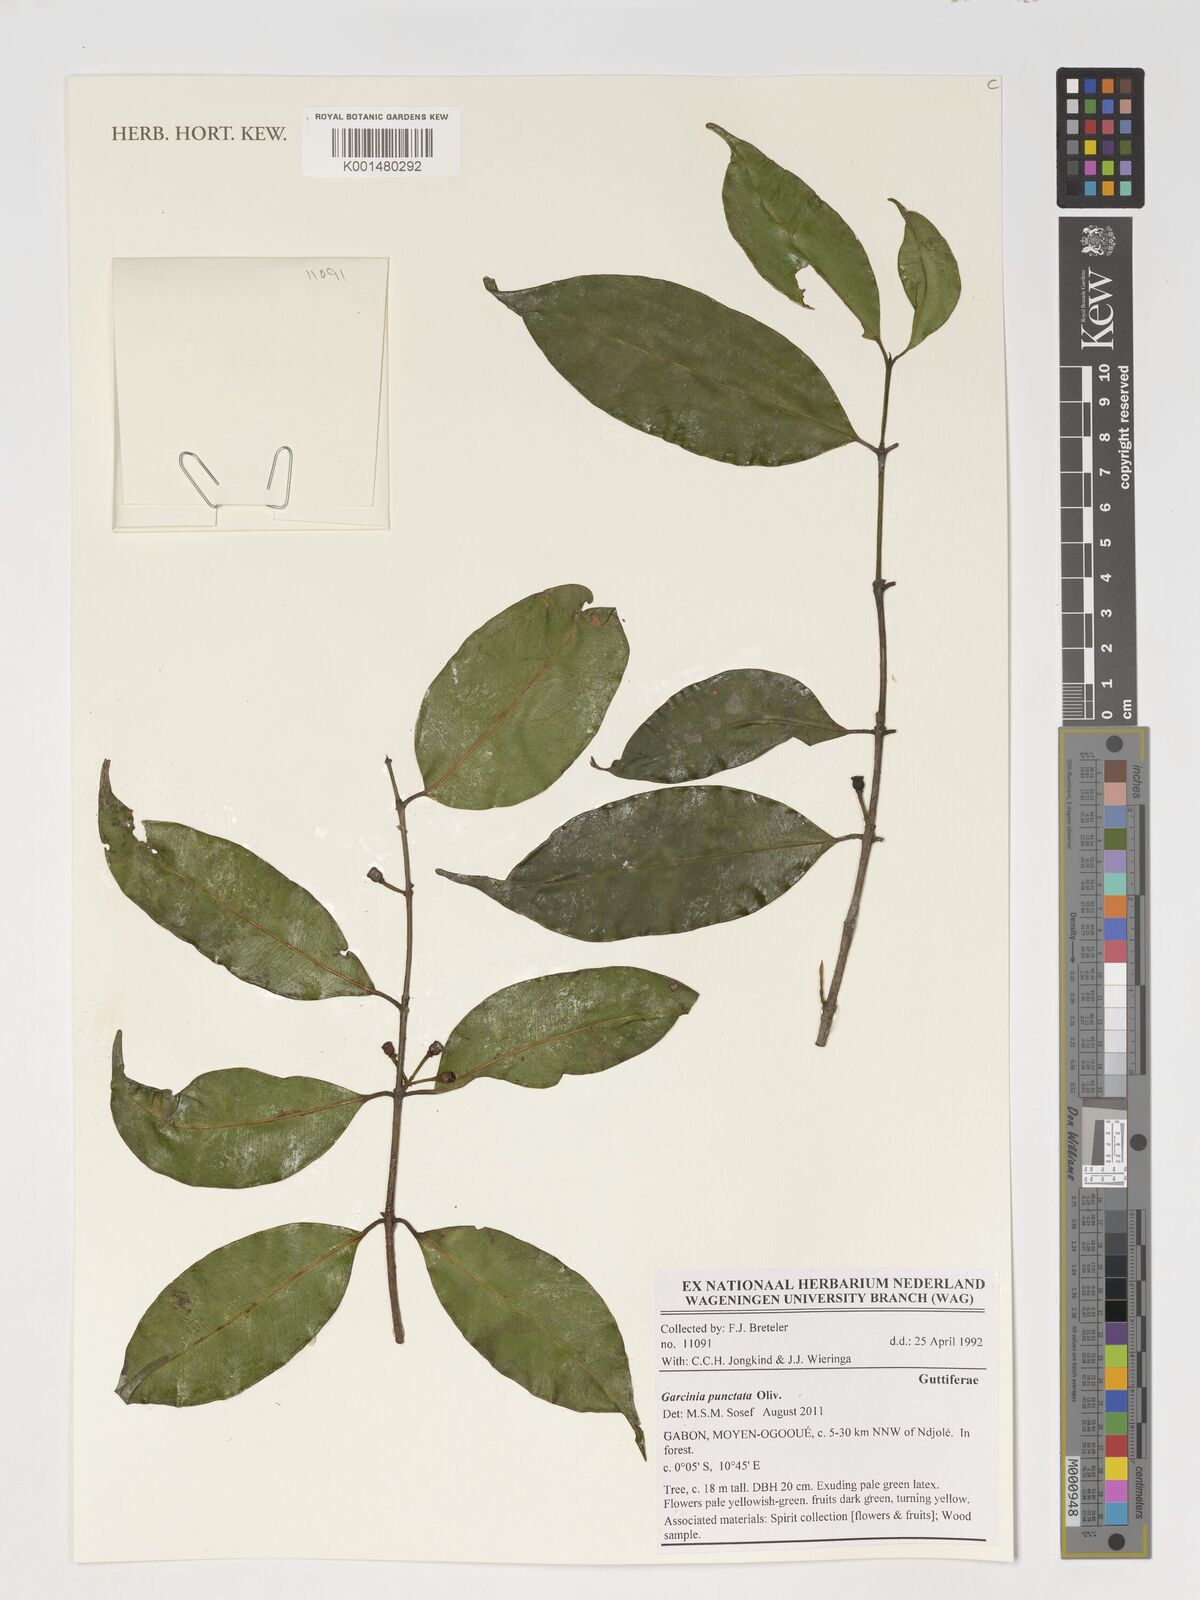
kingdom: Plantae
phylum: Tracheophyta
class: Magnoliopsida
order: Malpighiales
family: Clusiaceae
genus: Garcinia
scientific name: Garcinia punctata
